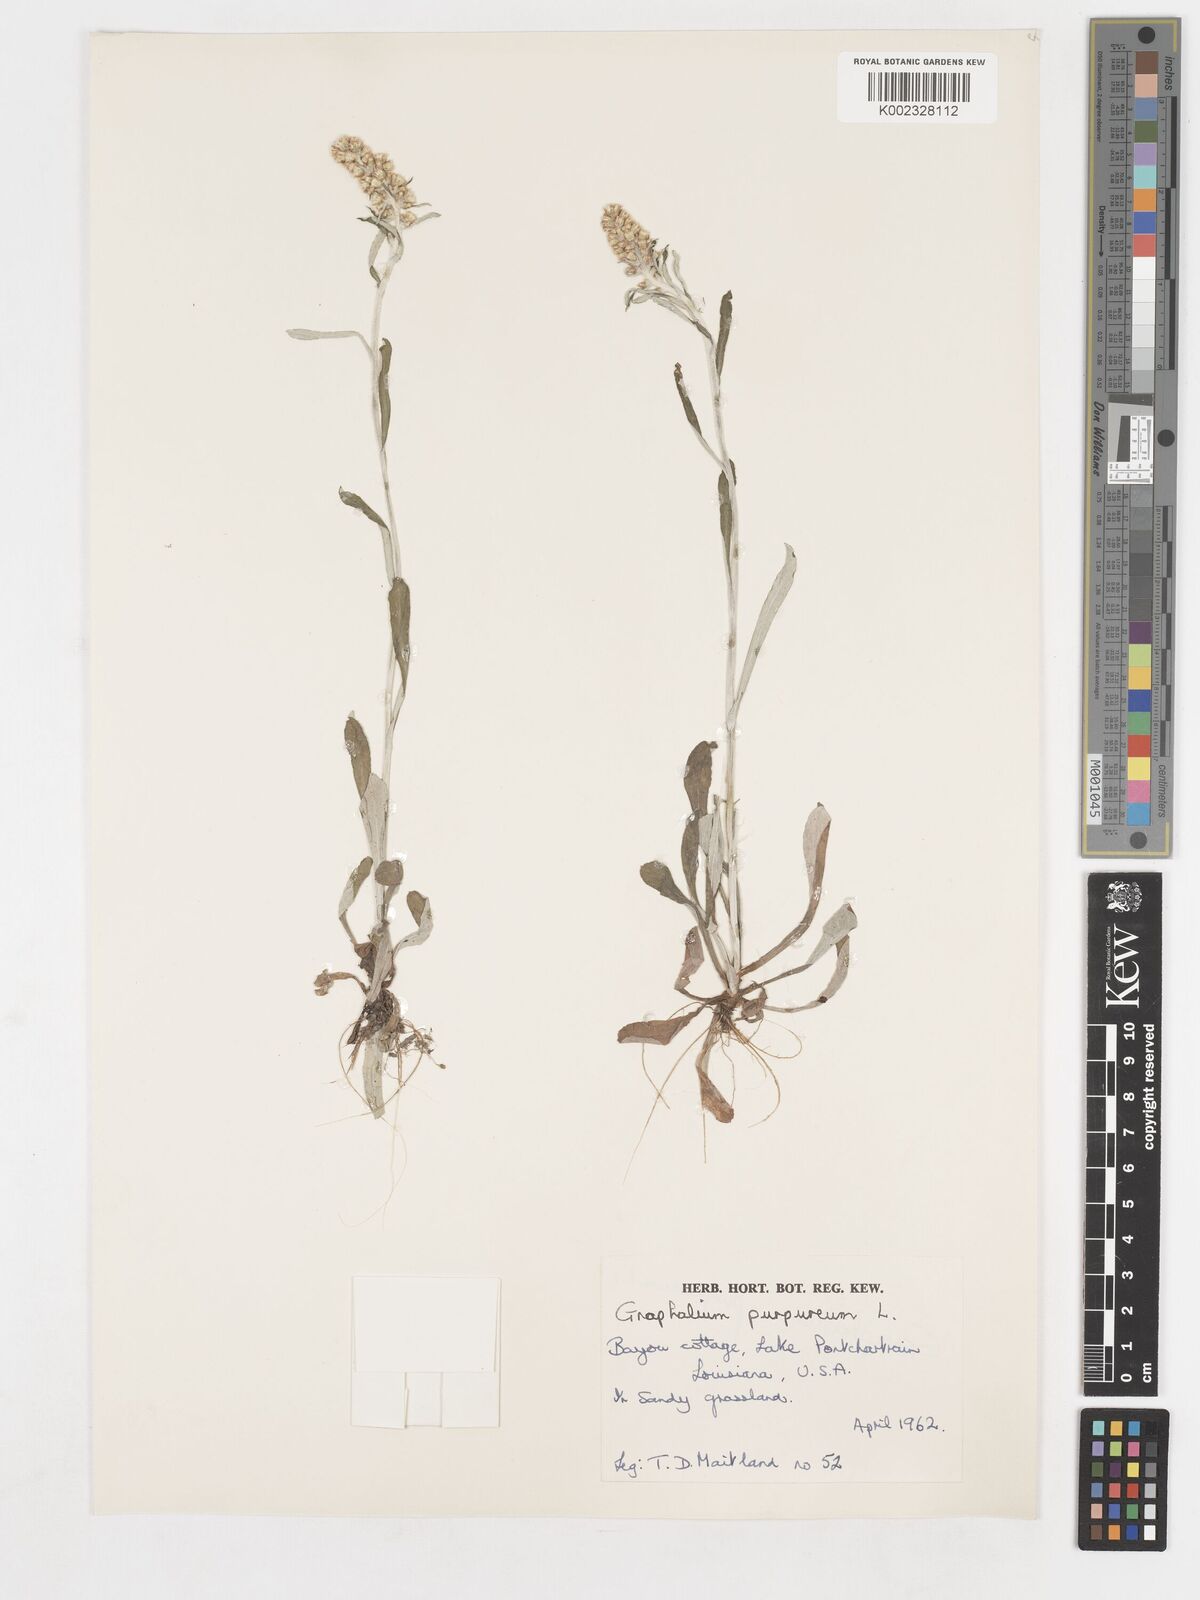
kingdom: Plantae
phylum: Tracheophyta
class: Magnoliopsida
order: Asterales
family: Asteraceae
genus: Gamochaeta
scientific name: Gamochaeta purpurea
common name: Purple cudweed
